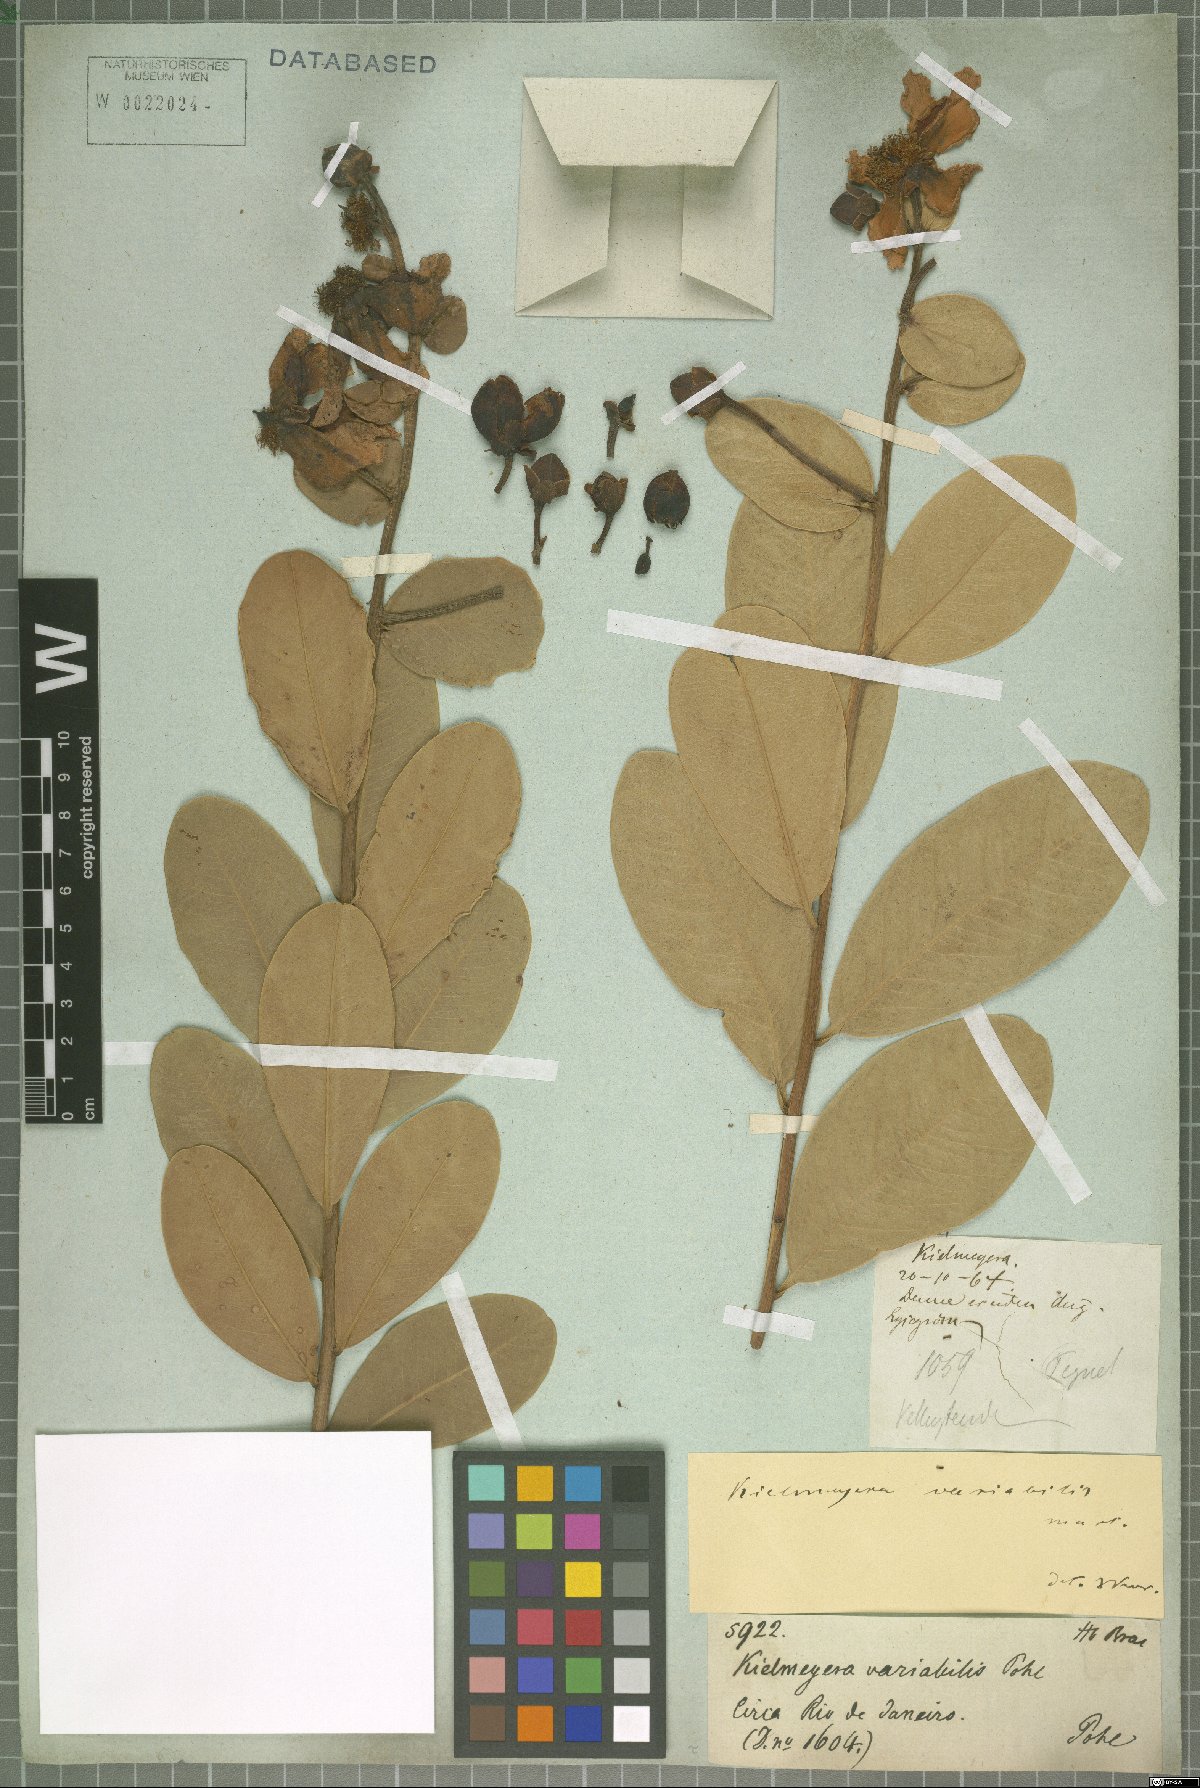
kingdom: Plantae
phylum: Tracheophyta
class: Magnoliopsida
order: Malpighiales
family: Calophyllaceae
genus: Kielmeyera
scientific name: Kielmeyera variabilis
